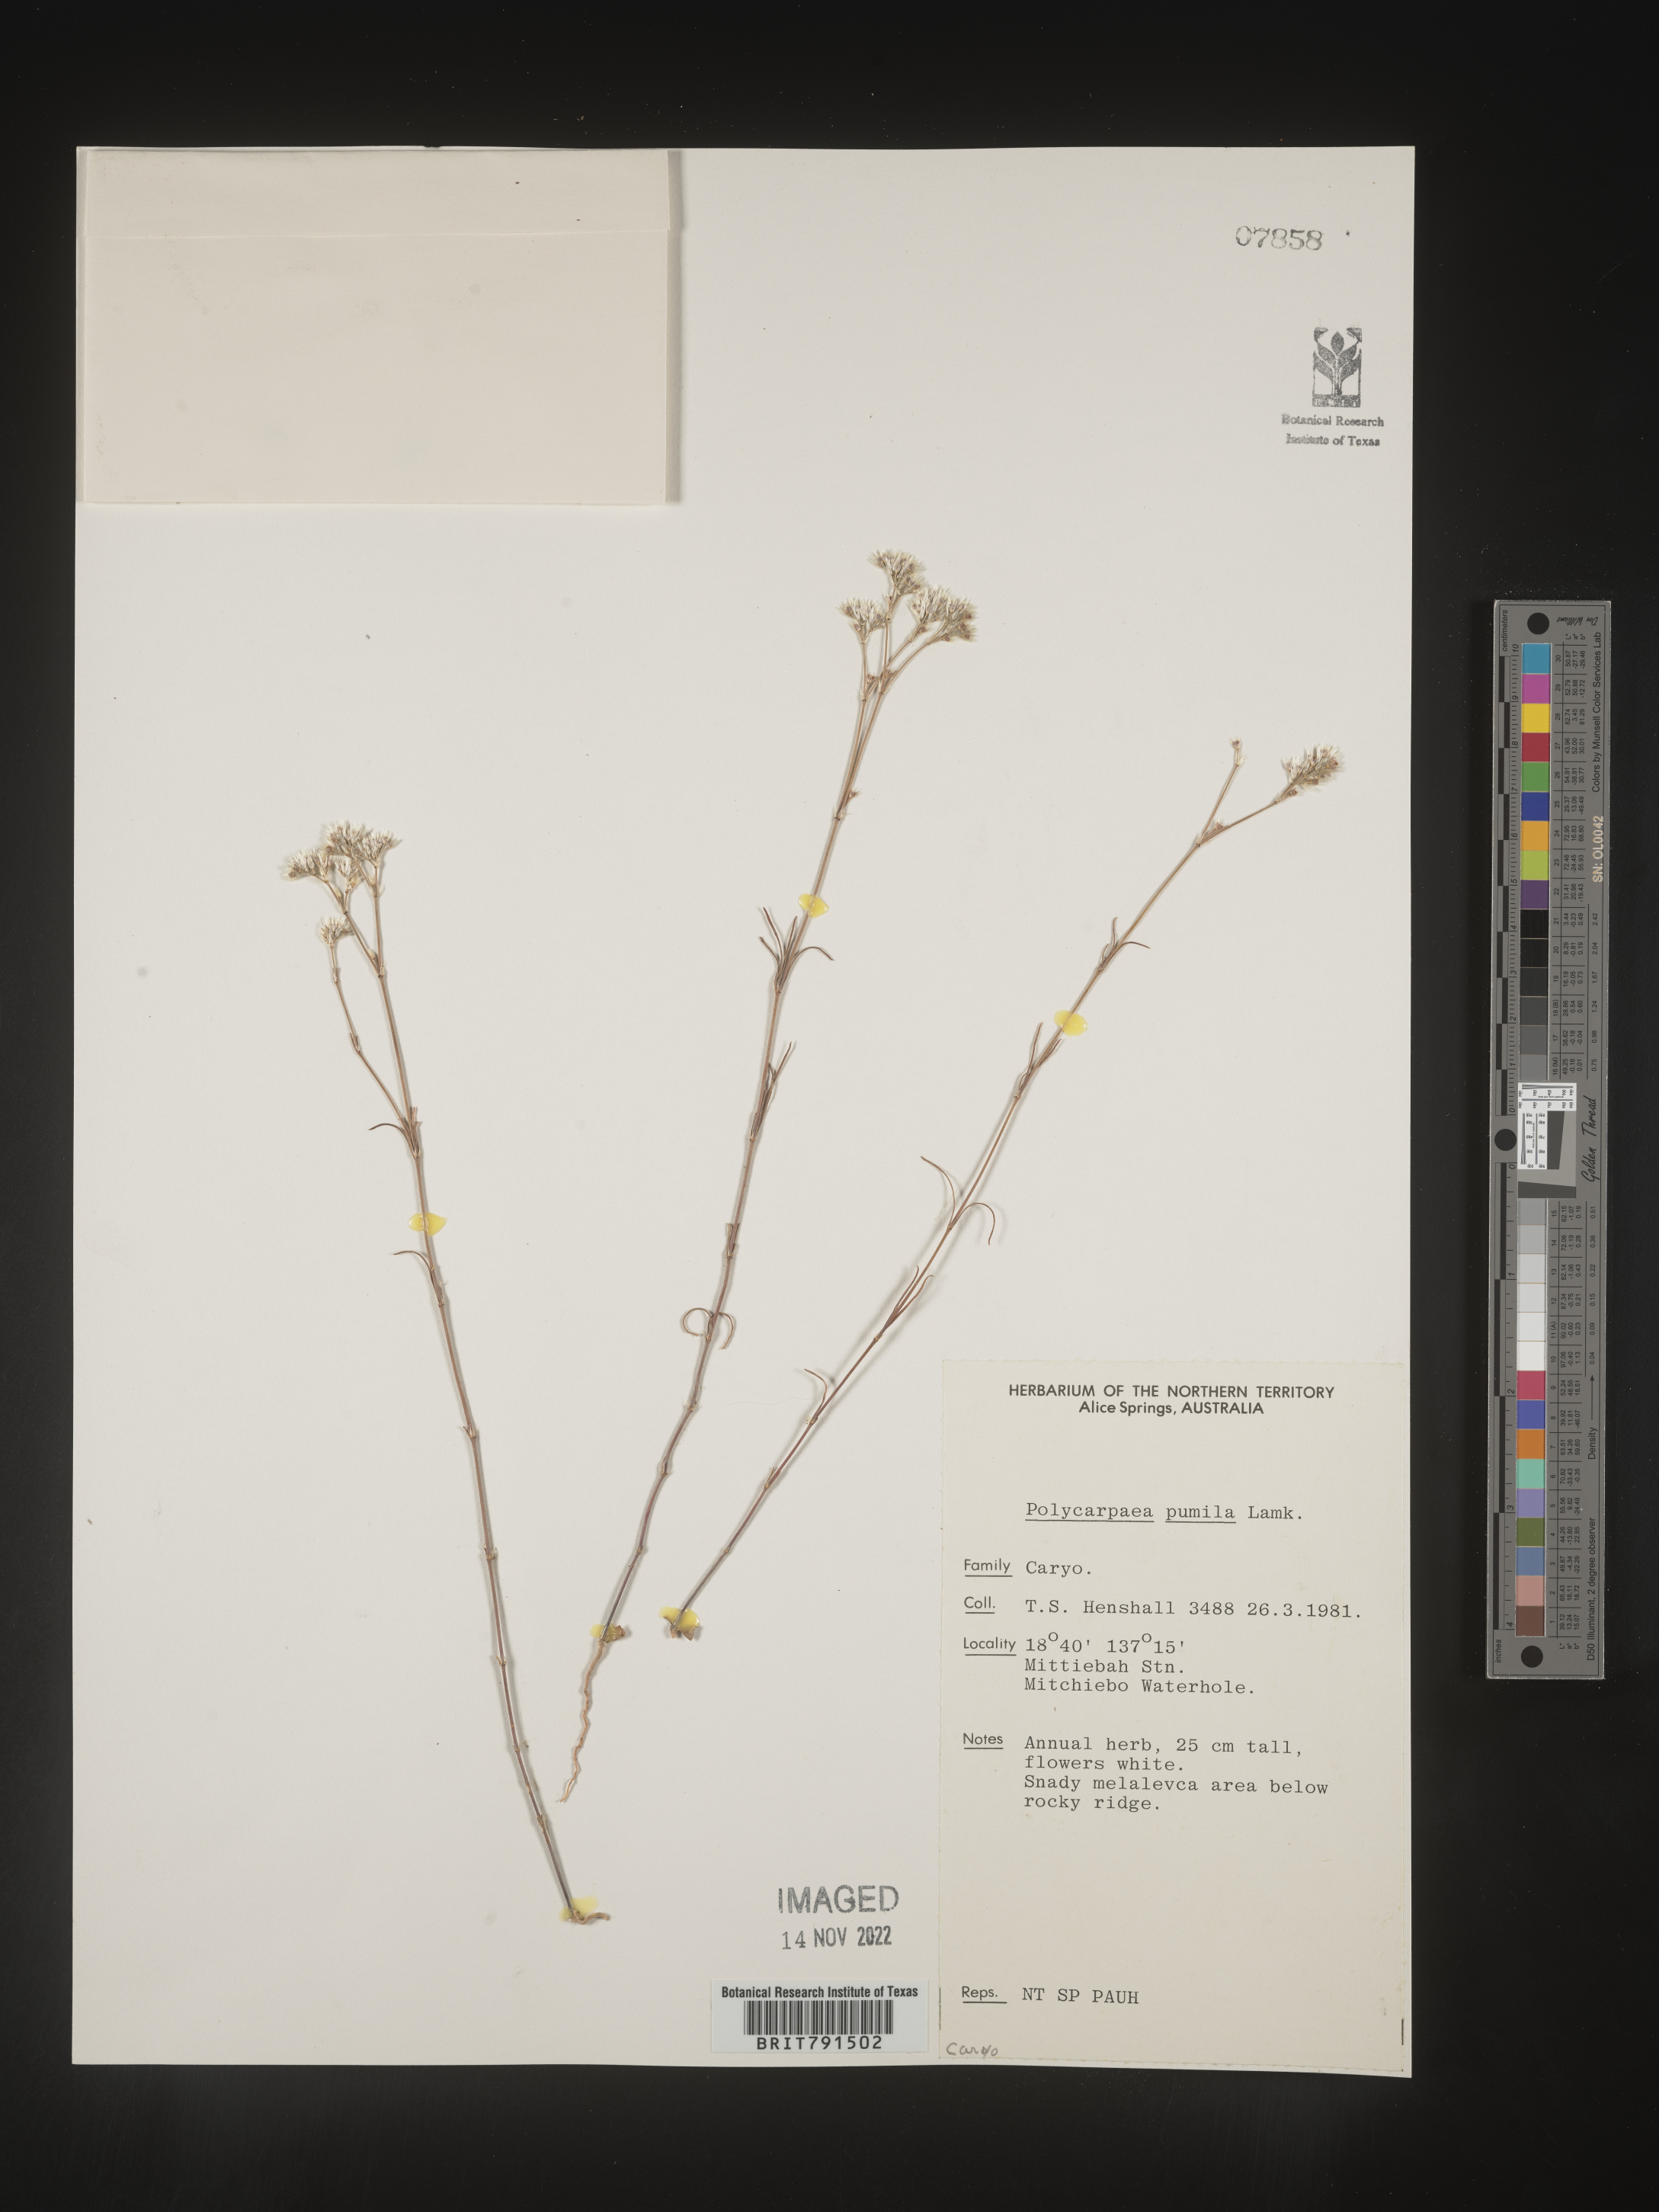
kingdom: Plantae
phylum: Tracheophyta
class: Magnoliopsida
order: Caryophyllales
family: Caryophyllaceae
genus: Polycarpaea
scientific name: Polycarpaea
